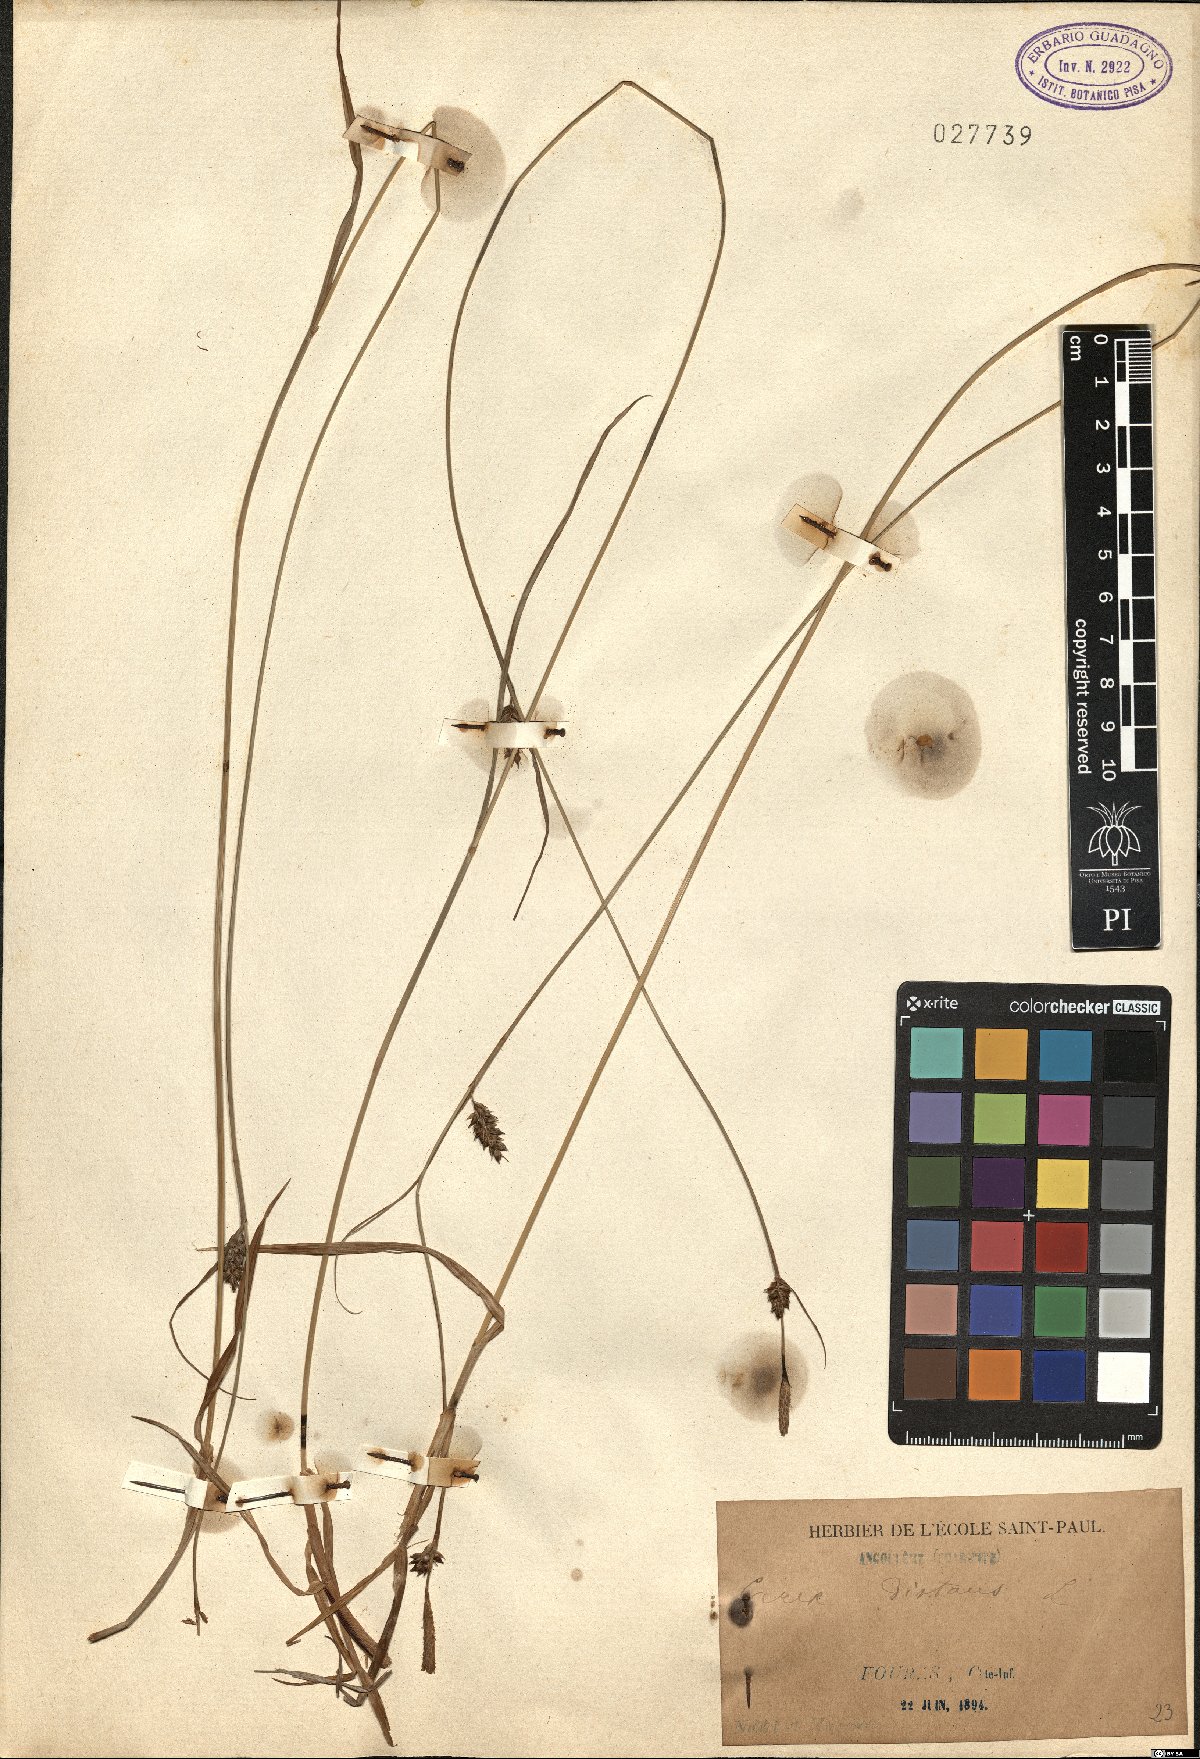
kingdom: Plantae
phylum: Tracheophyta
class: Liliopsida
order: Poales
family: Cyperaceae
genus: Carex
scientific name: Carex distans
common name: Distant sedge
